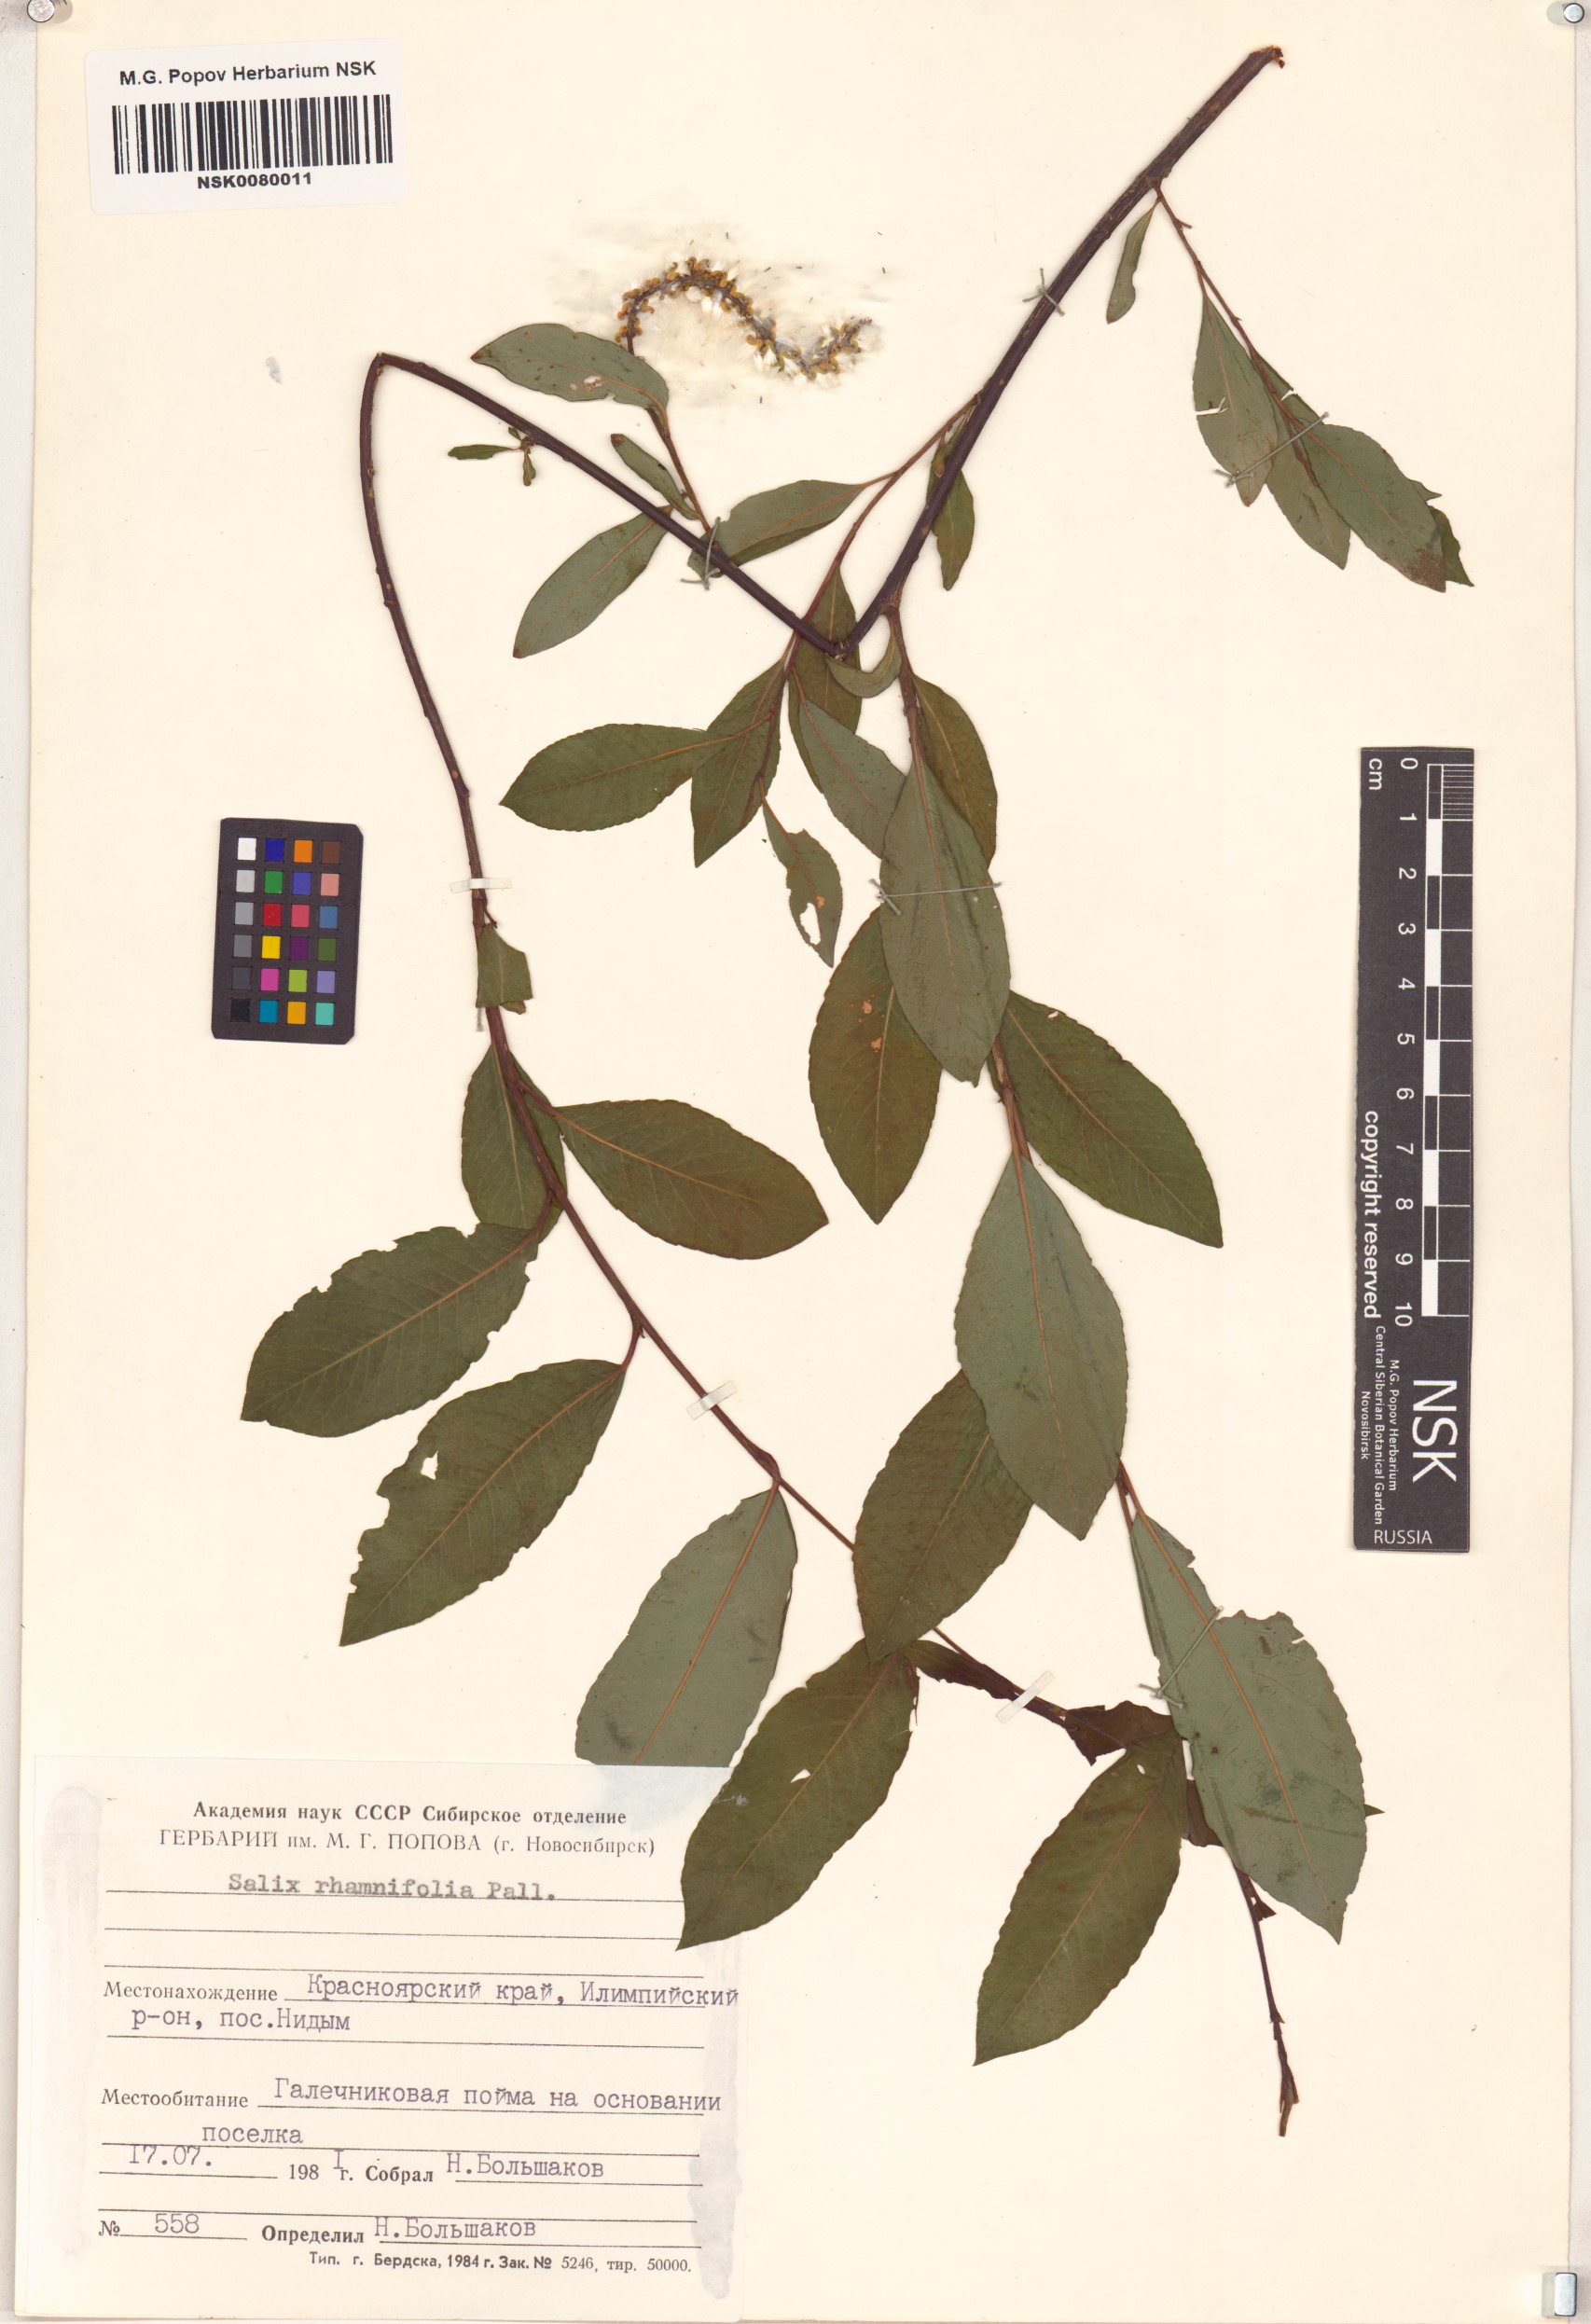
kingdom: Plantae
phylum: Tracheophyta
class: Magnoliopsida
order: Malpighiales
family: Salicaceae
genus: Salix
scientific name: Salix rhamnifolia
